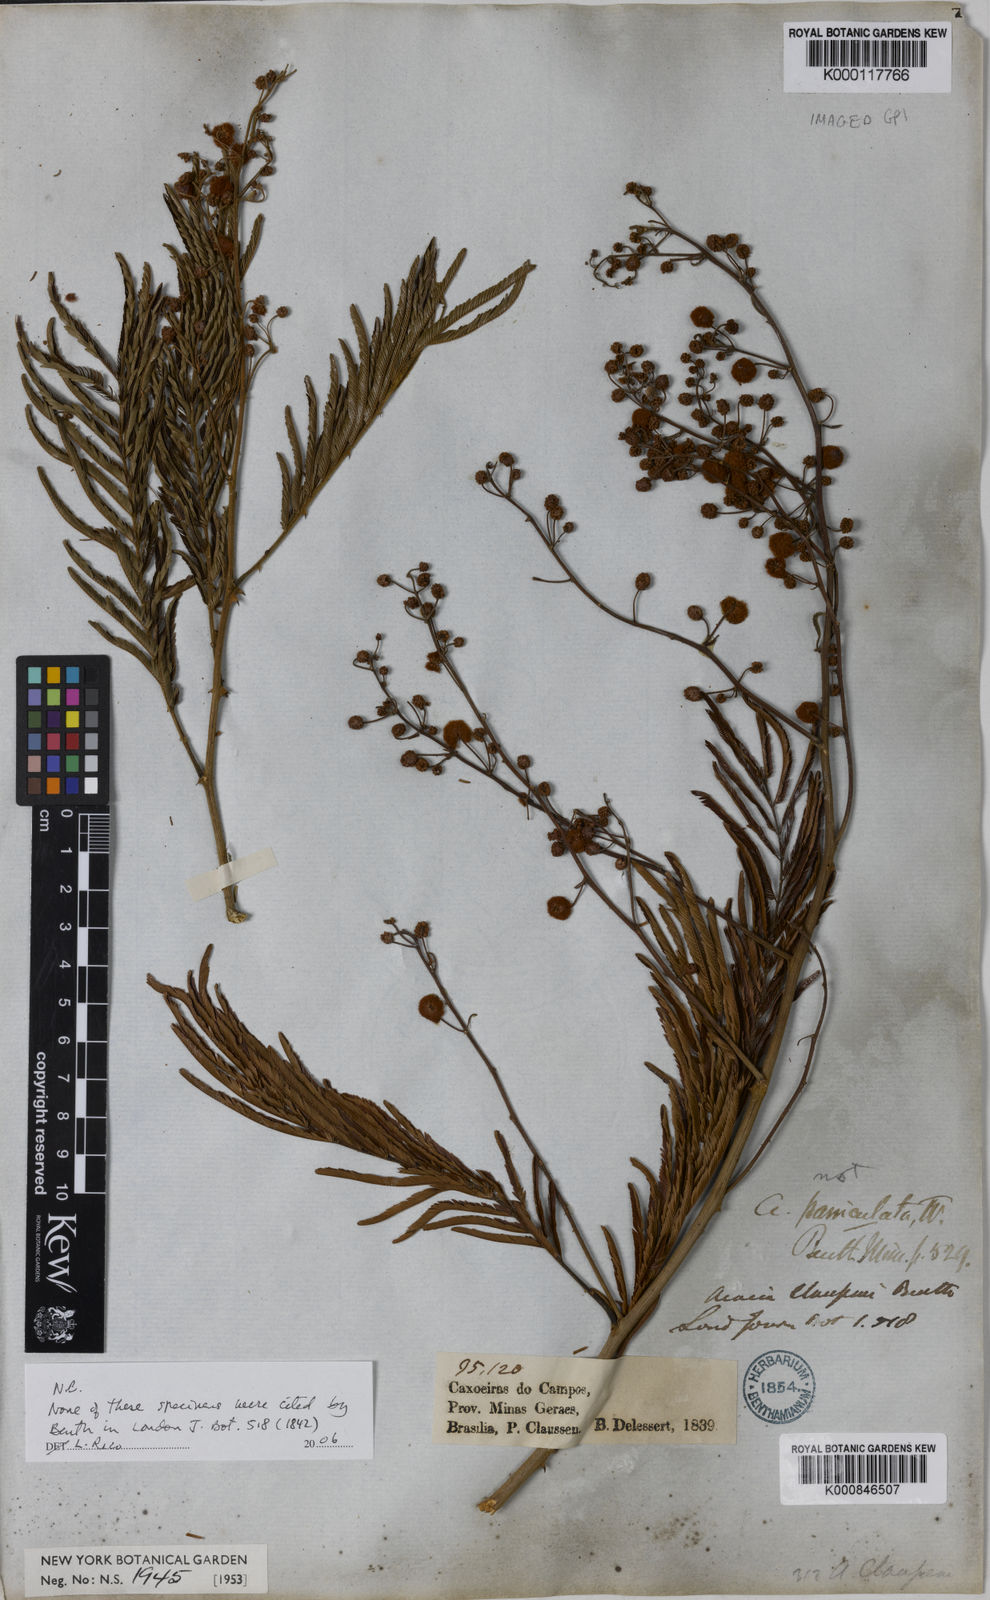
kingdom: Plantae
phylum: Tracheophyta
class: Magnoliopsida
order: Fabales
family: Fabaceae
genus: Senegalia
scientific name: Senegalia tenuifolia
